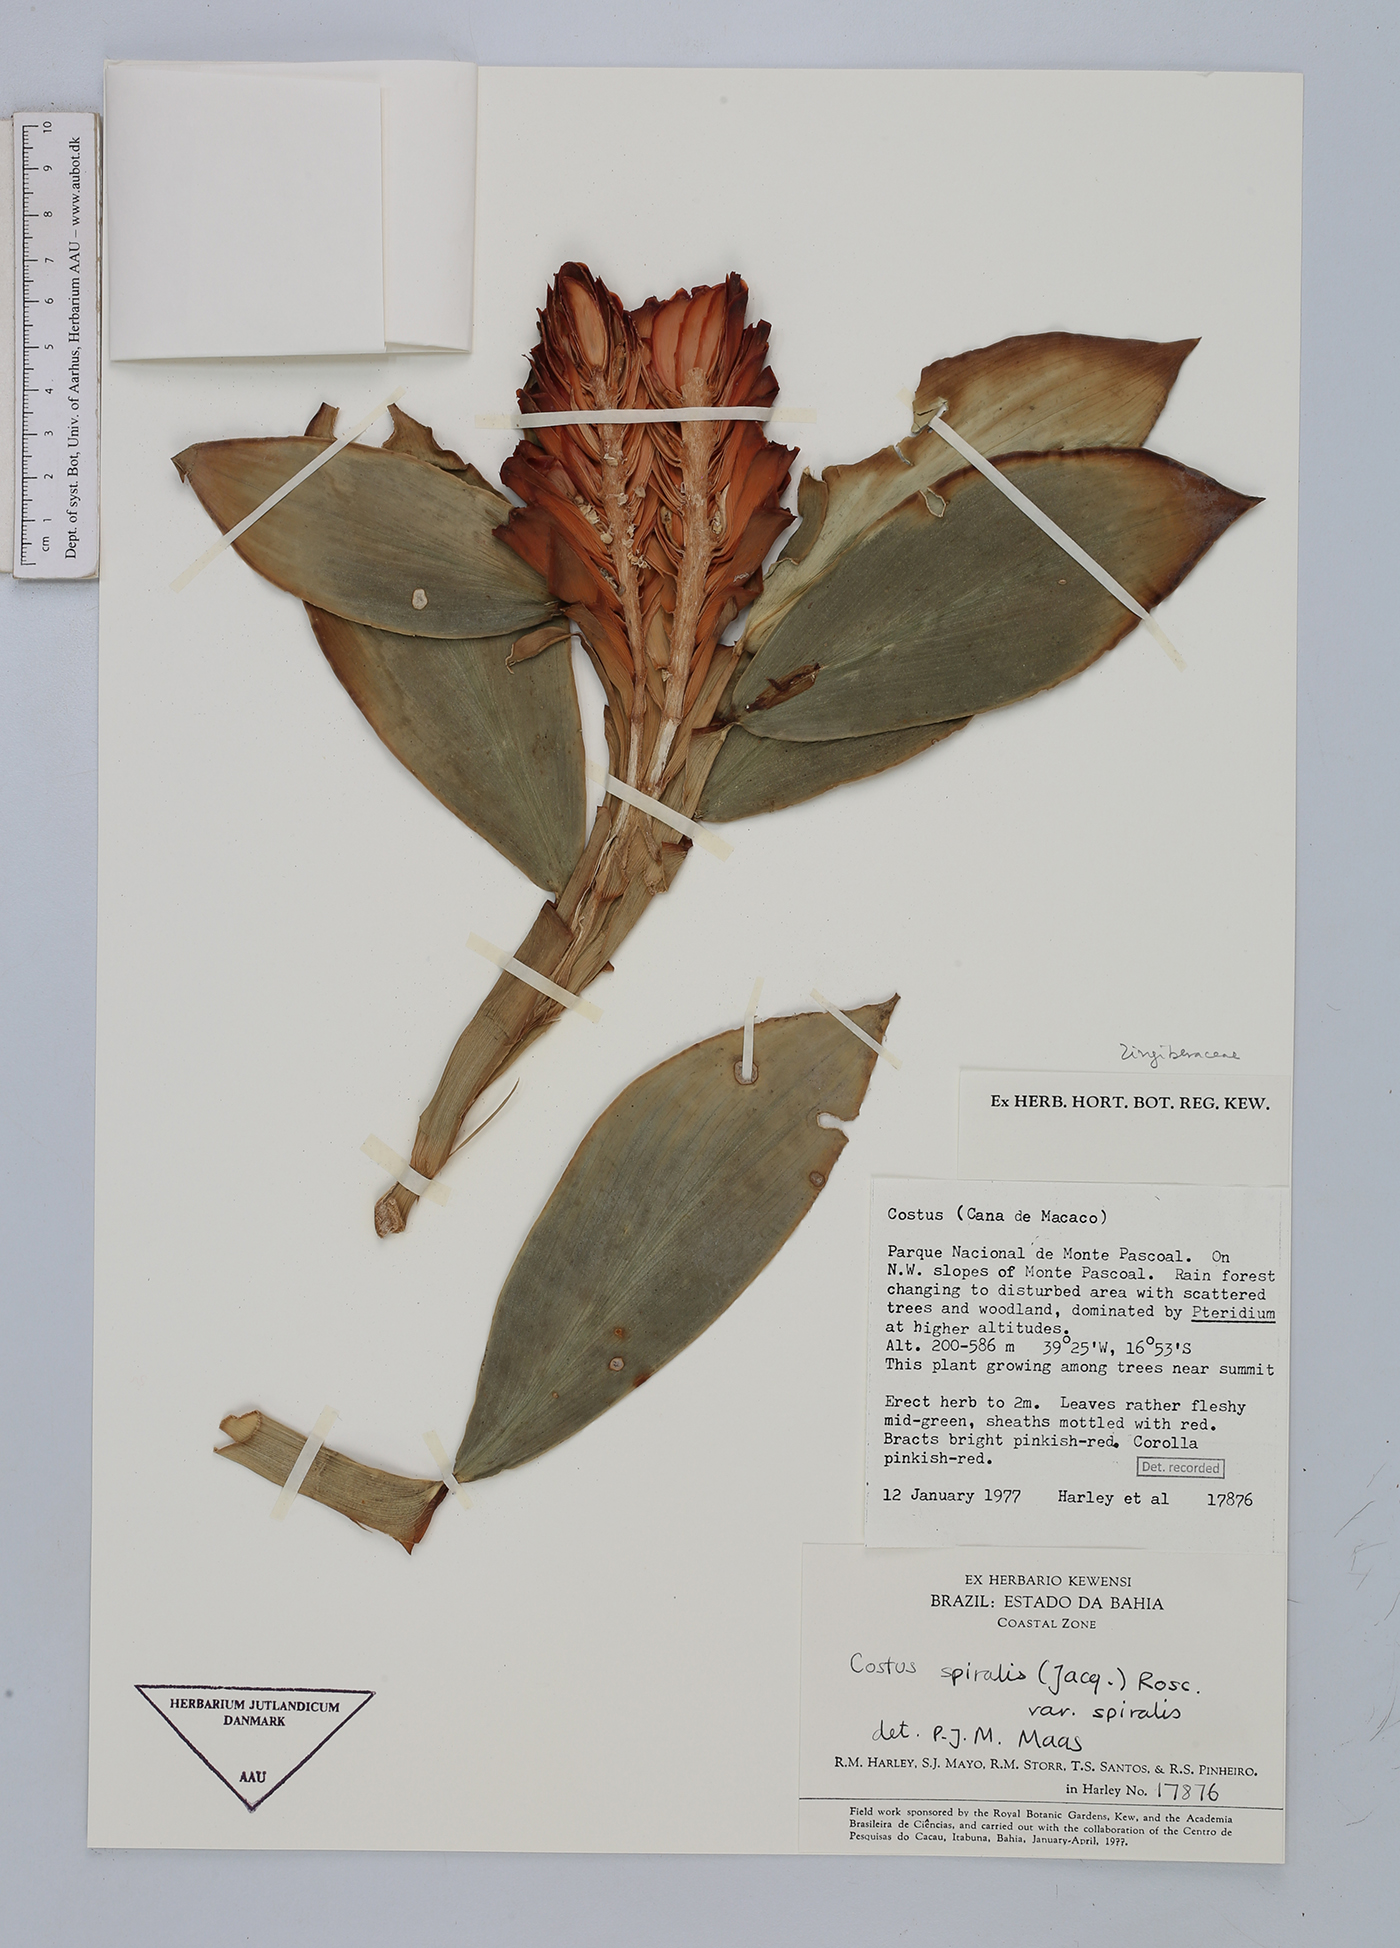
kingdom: Plantae
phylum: Tracheophyta
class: Liliopsida
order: Zingiberales
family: Costaceae
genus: Costus
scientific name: Costus spiralis
